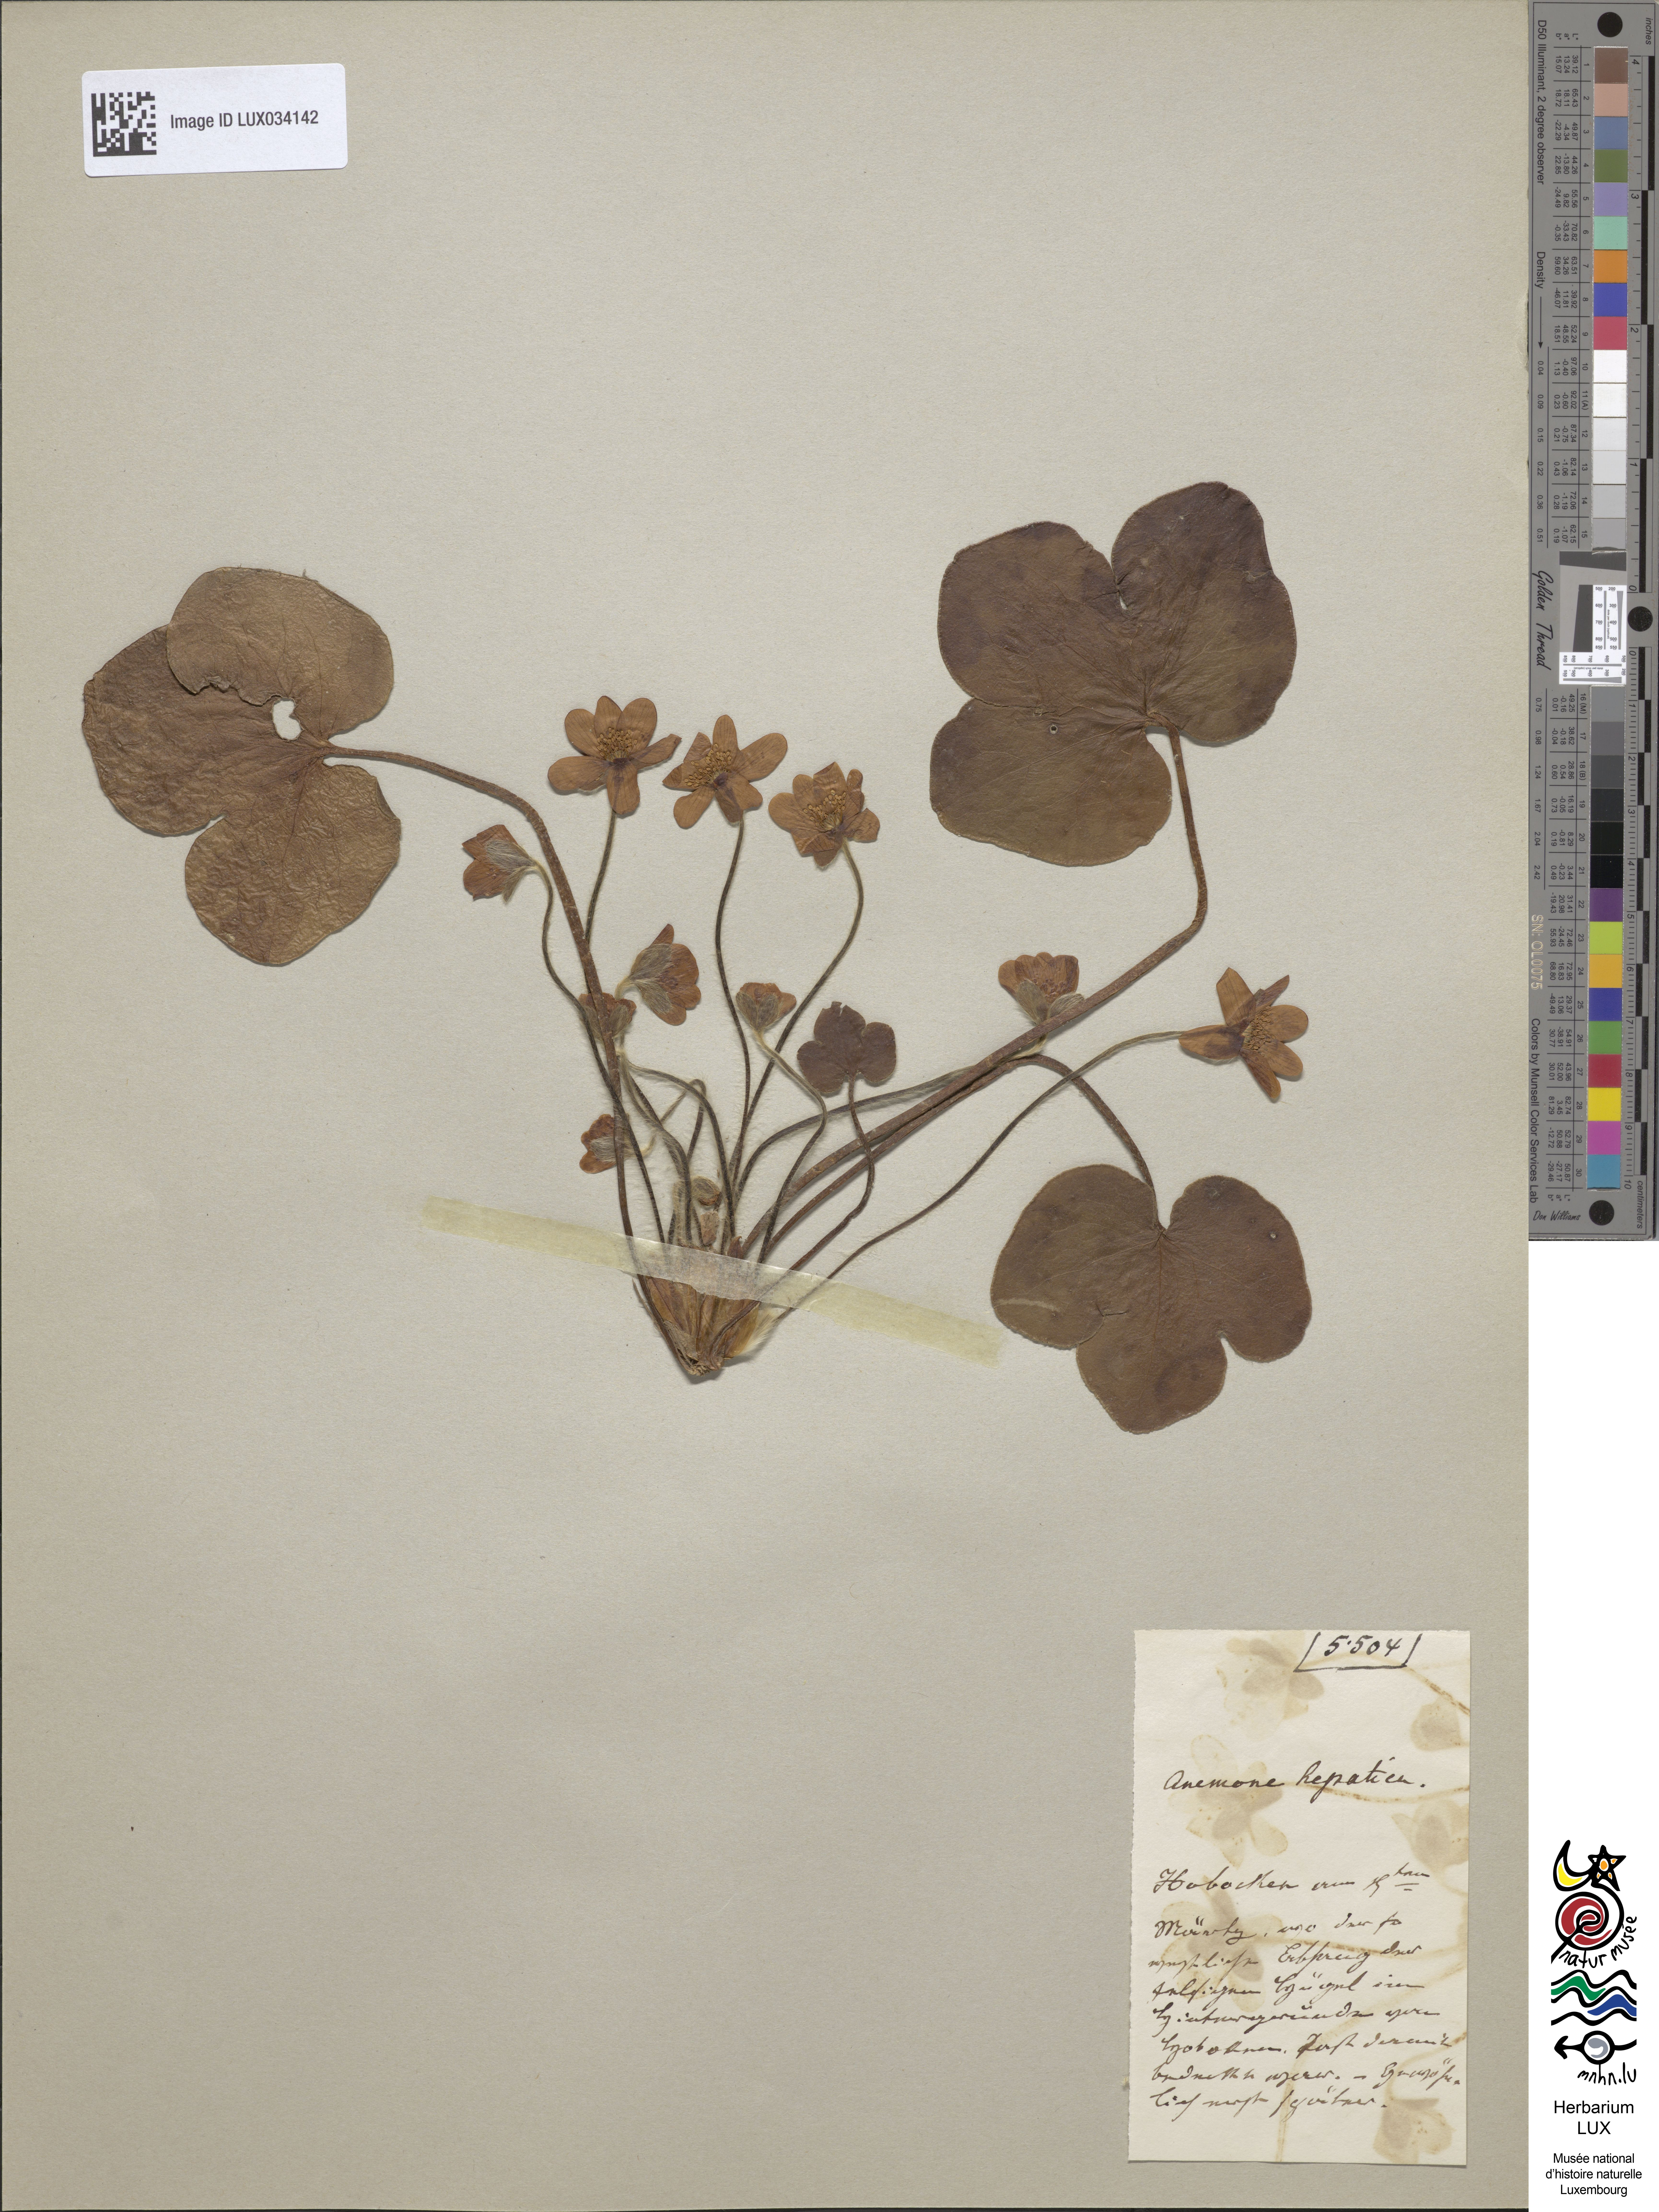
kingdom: Plantae
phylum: Tracheophyta
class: Magnoliopsida
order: Ranunculales
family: Ranunculaceae
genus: Hepatica
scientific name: Hepatica nobilis
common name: Liverleaf
